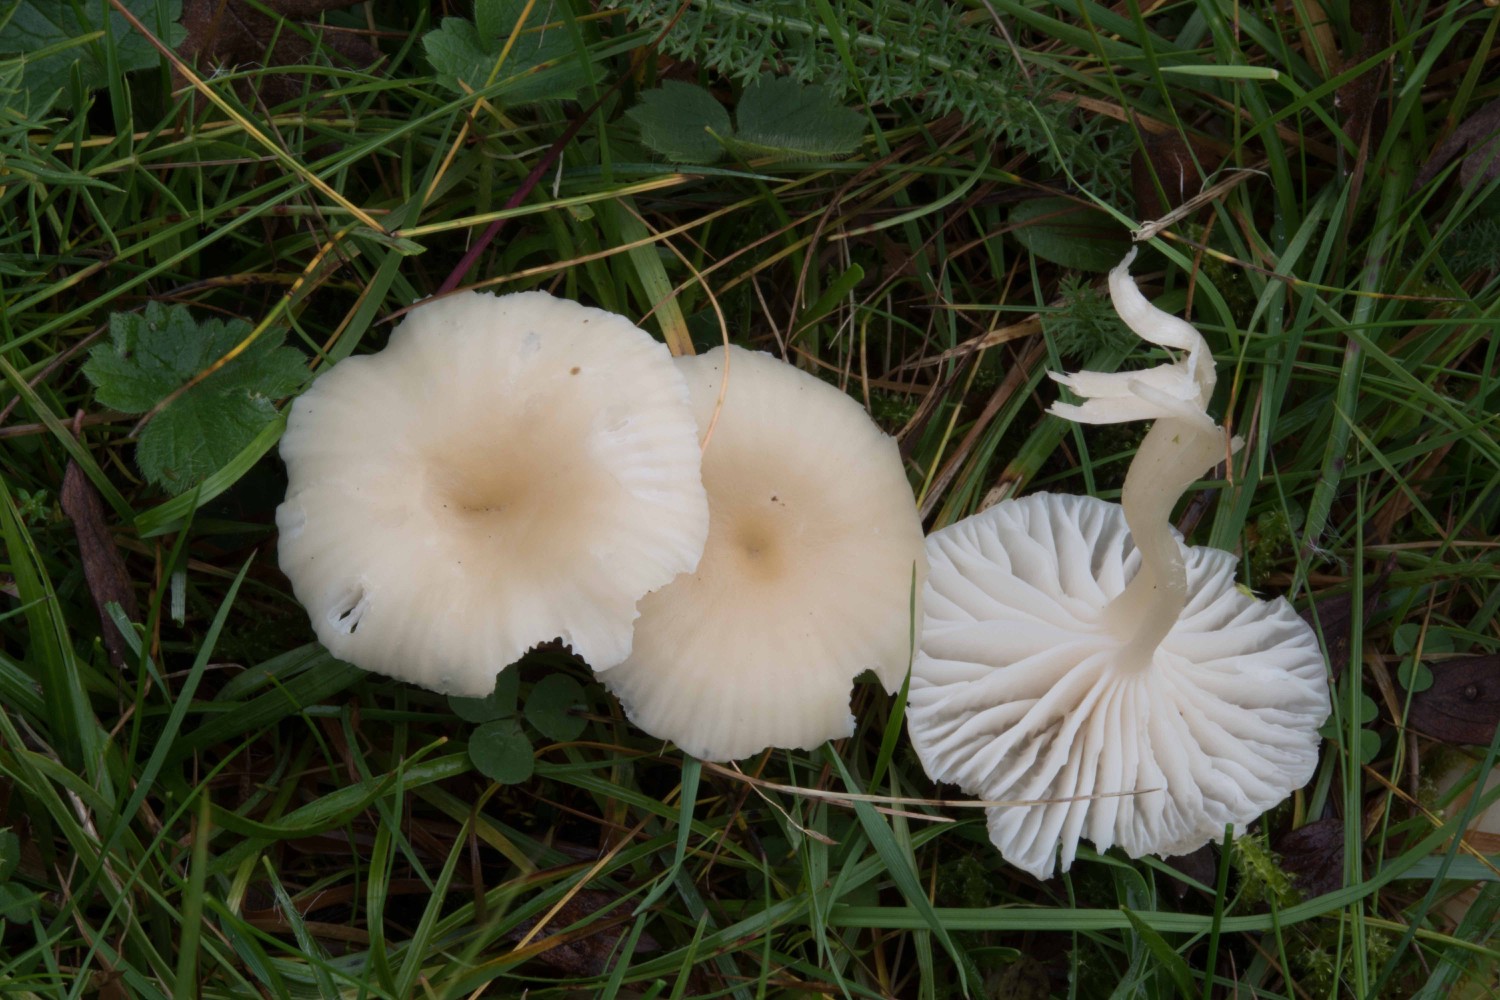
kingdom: Fungi
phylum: Basidiomycota
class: Agaricomycetes
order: Agaricales
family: Hygrophoraceae
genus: Cuphophyllus
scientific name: Cuphophyllus russocoriaceus
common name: ruslæder-vokshat
